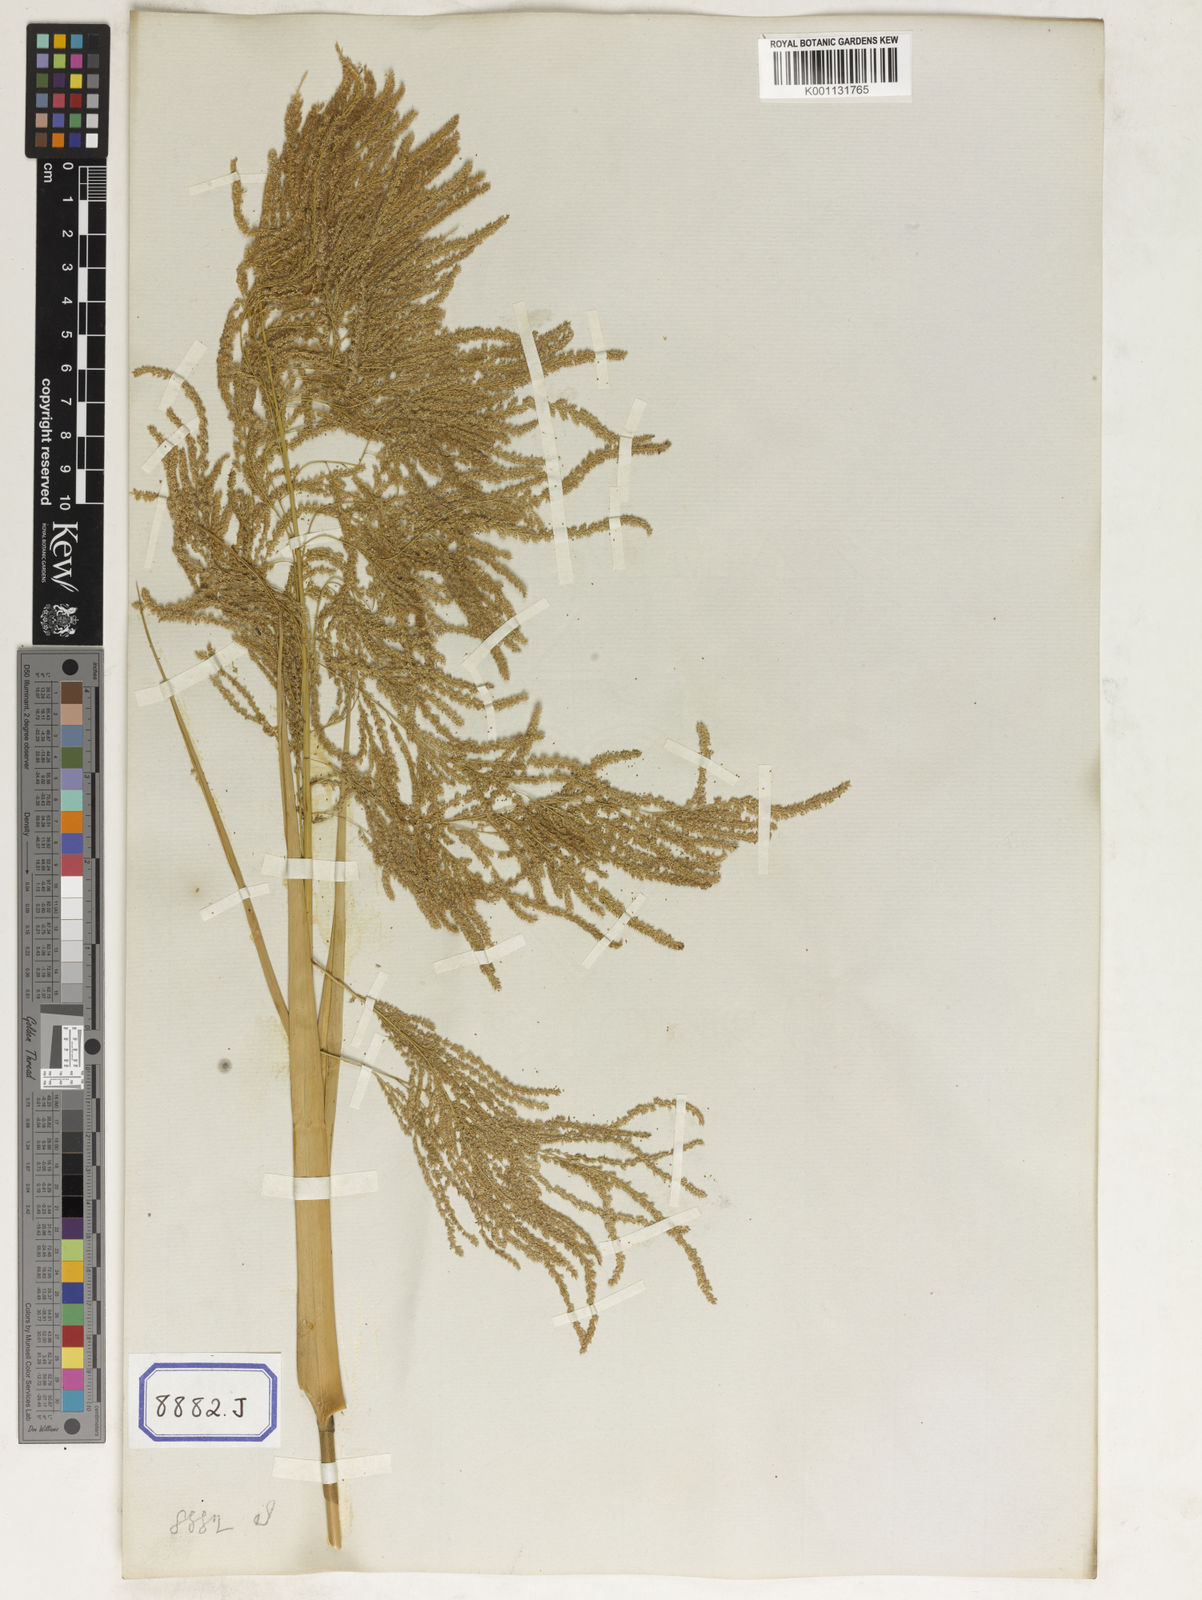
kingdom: Plantae
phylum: Tracheophyta
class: Liliopsida
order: Poales
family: Poaceae
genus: Thysanolaena
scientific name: Thysanolaena latifolia
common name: Tiger grass
